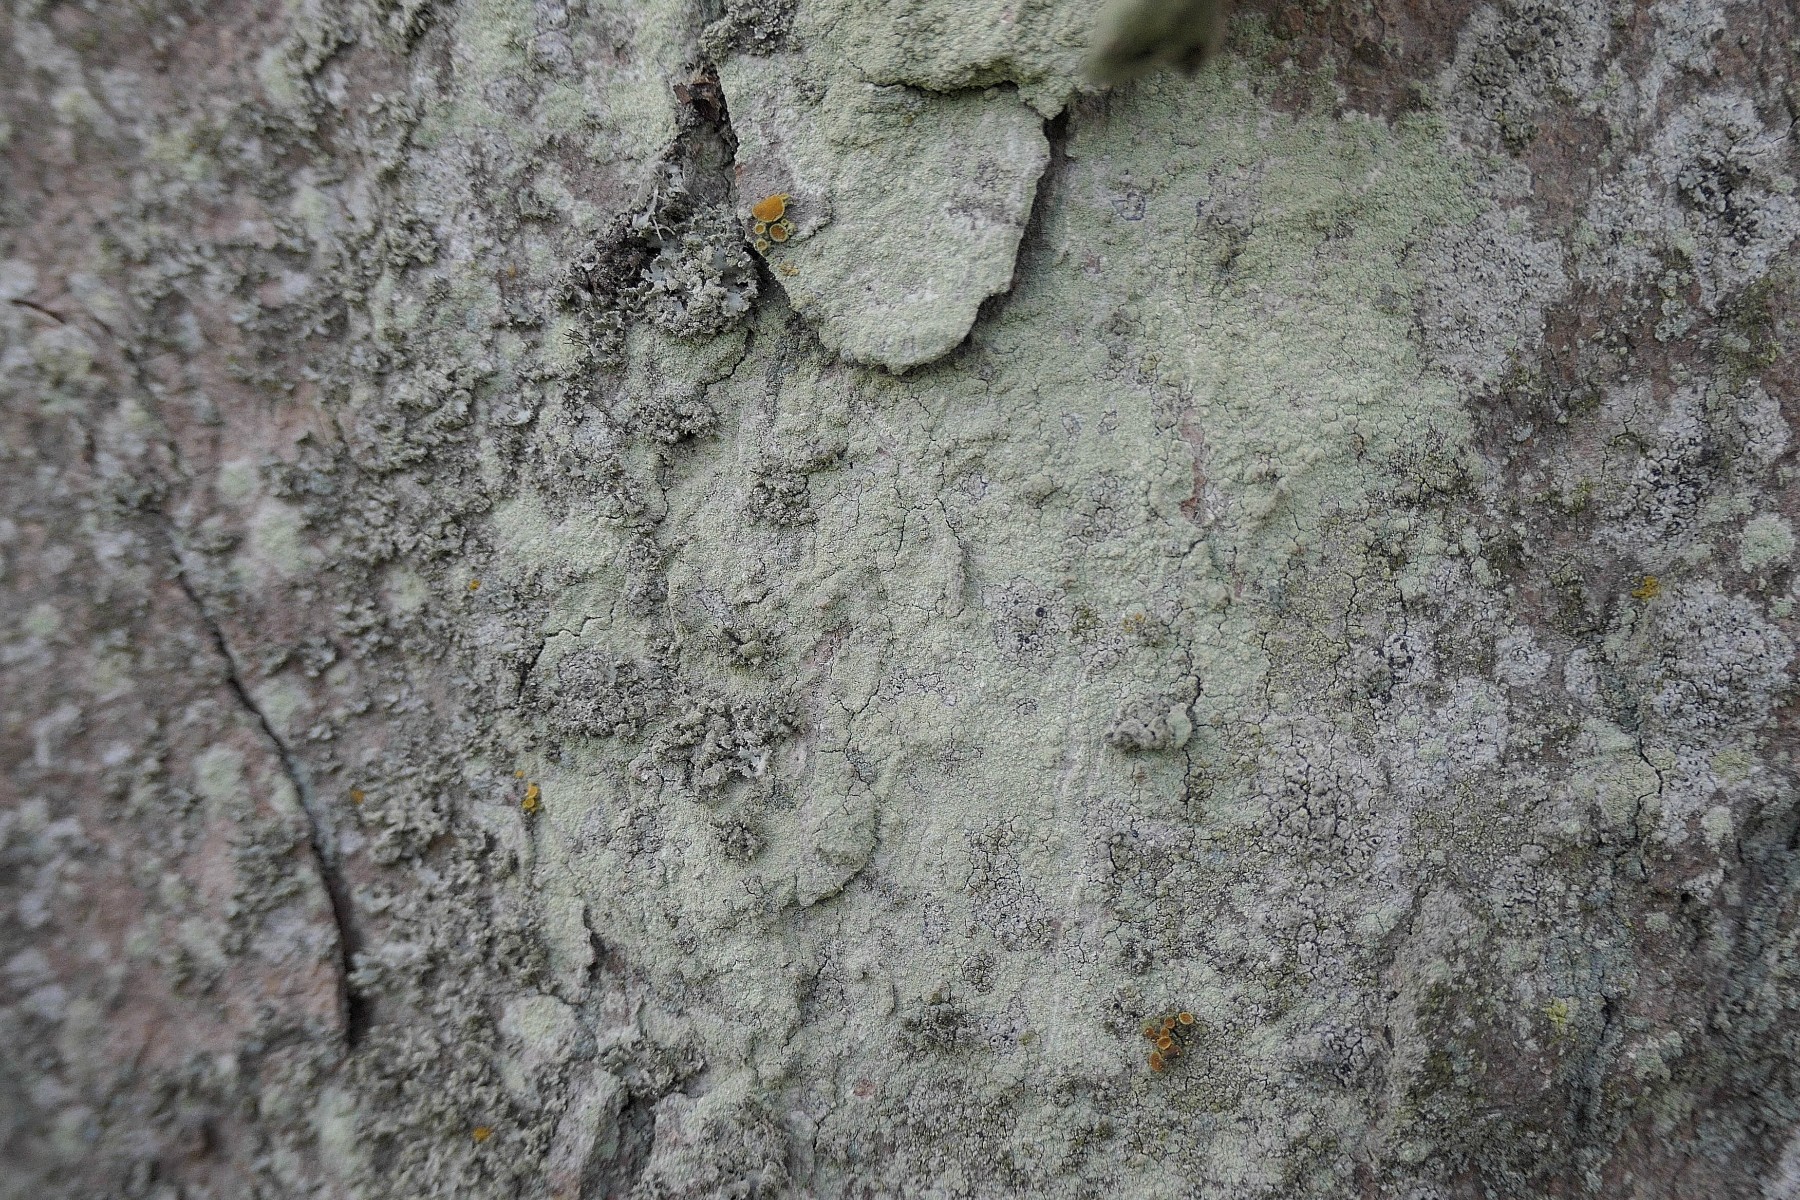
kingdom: Fungi
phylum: Ascomycota
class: Lecanoromycetes
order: Lecanorales
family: Lecanoraceae
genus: Lecanora
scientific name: Lecanora expallens
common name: bleggul kantskivelav
